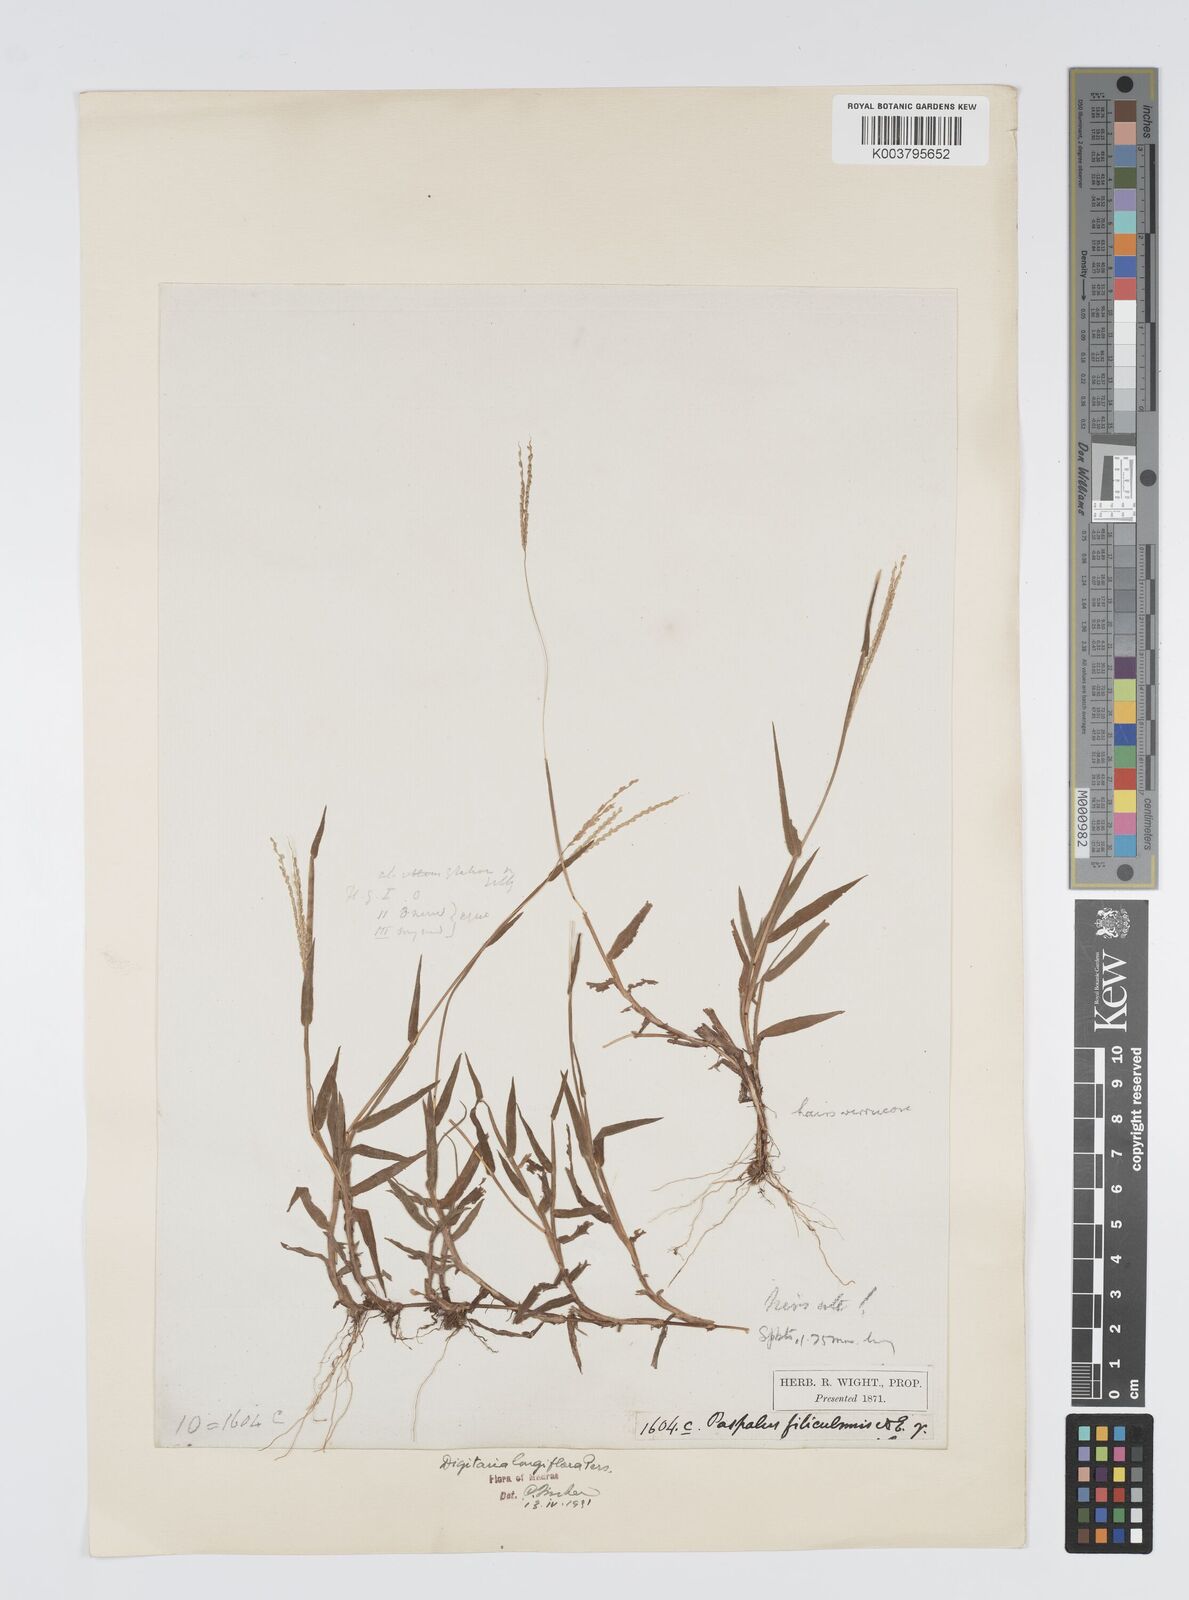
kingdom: Plantae
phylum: Tracheophyta
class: Liliopsida
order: Poales
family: Poaceae
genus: Digitaria
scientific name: Digitaria longiflora
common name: Wire crabgrass
